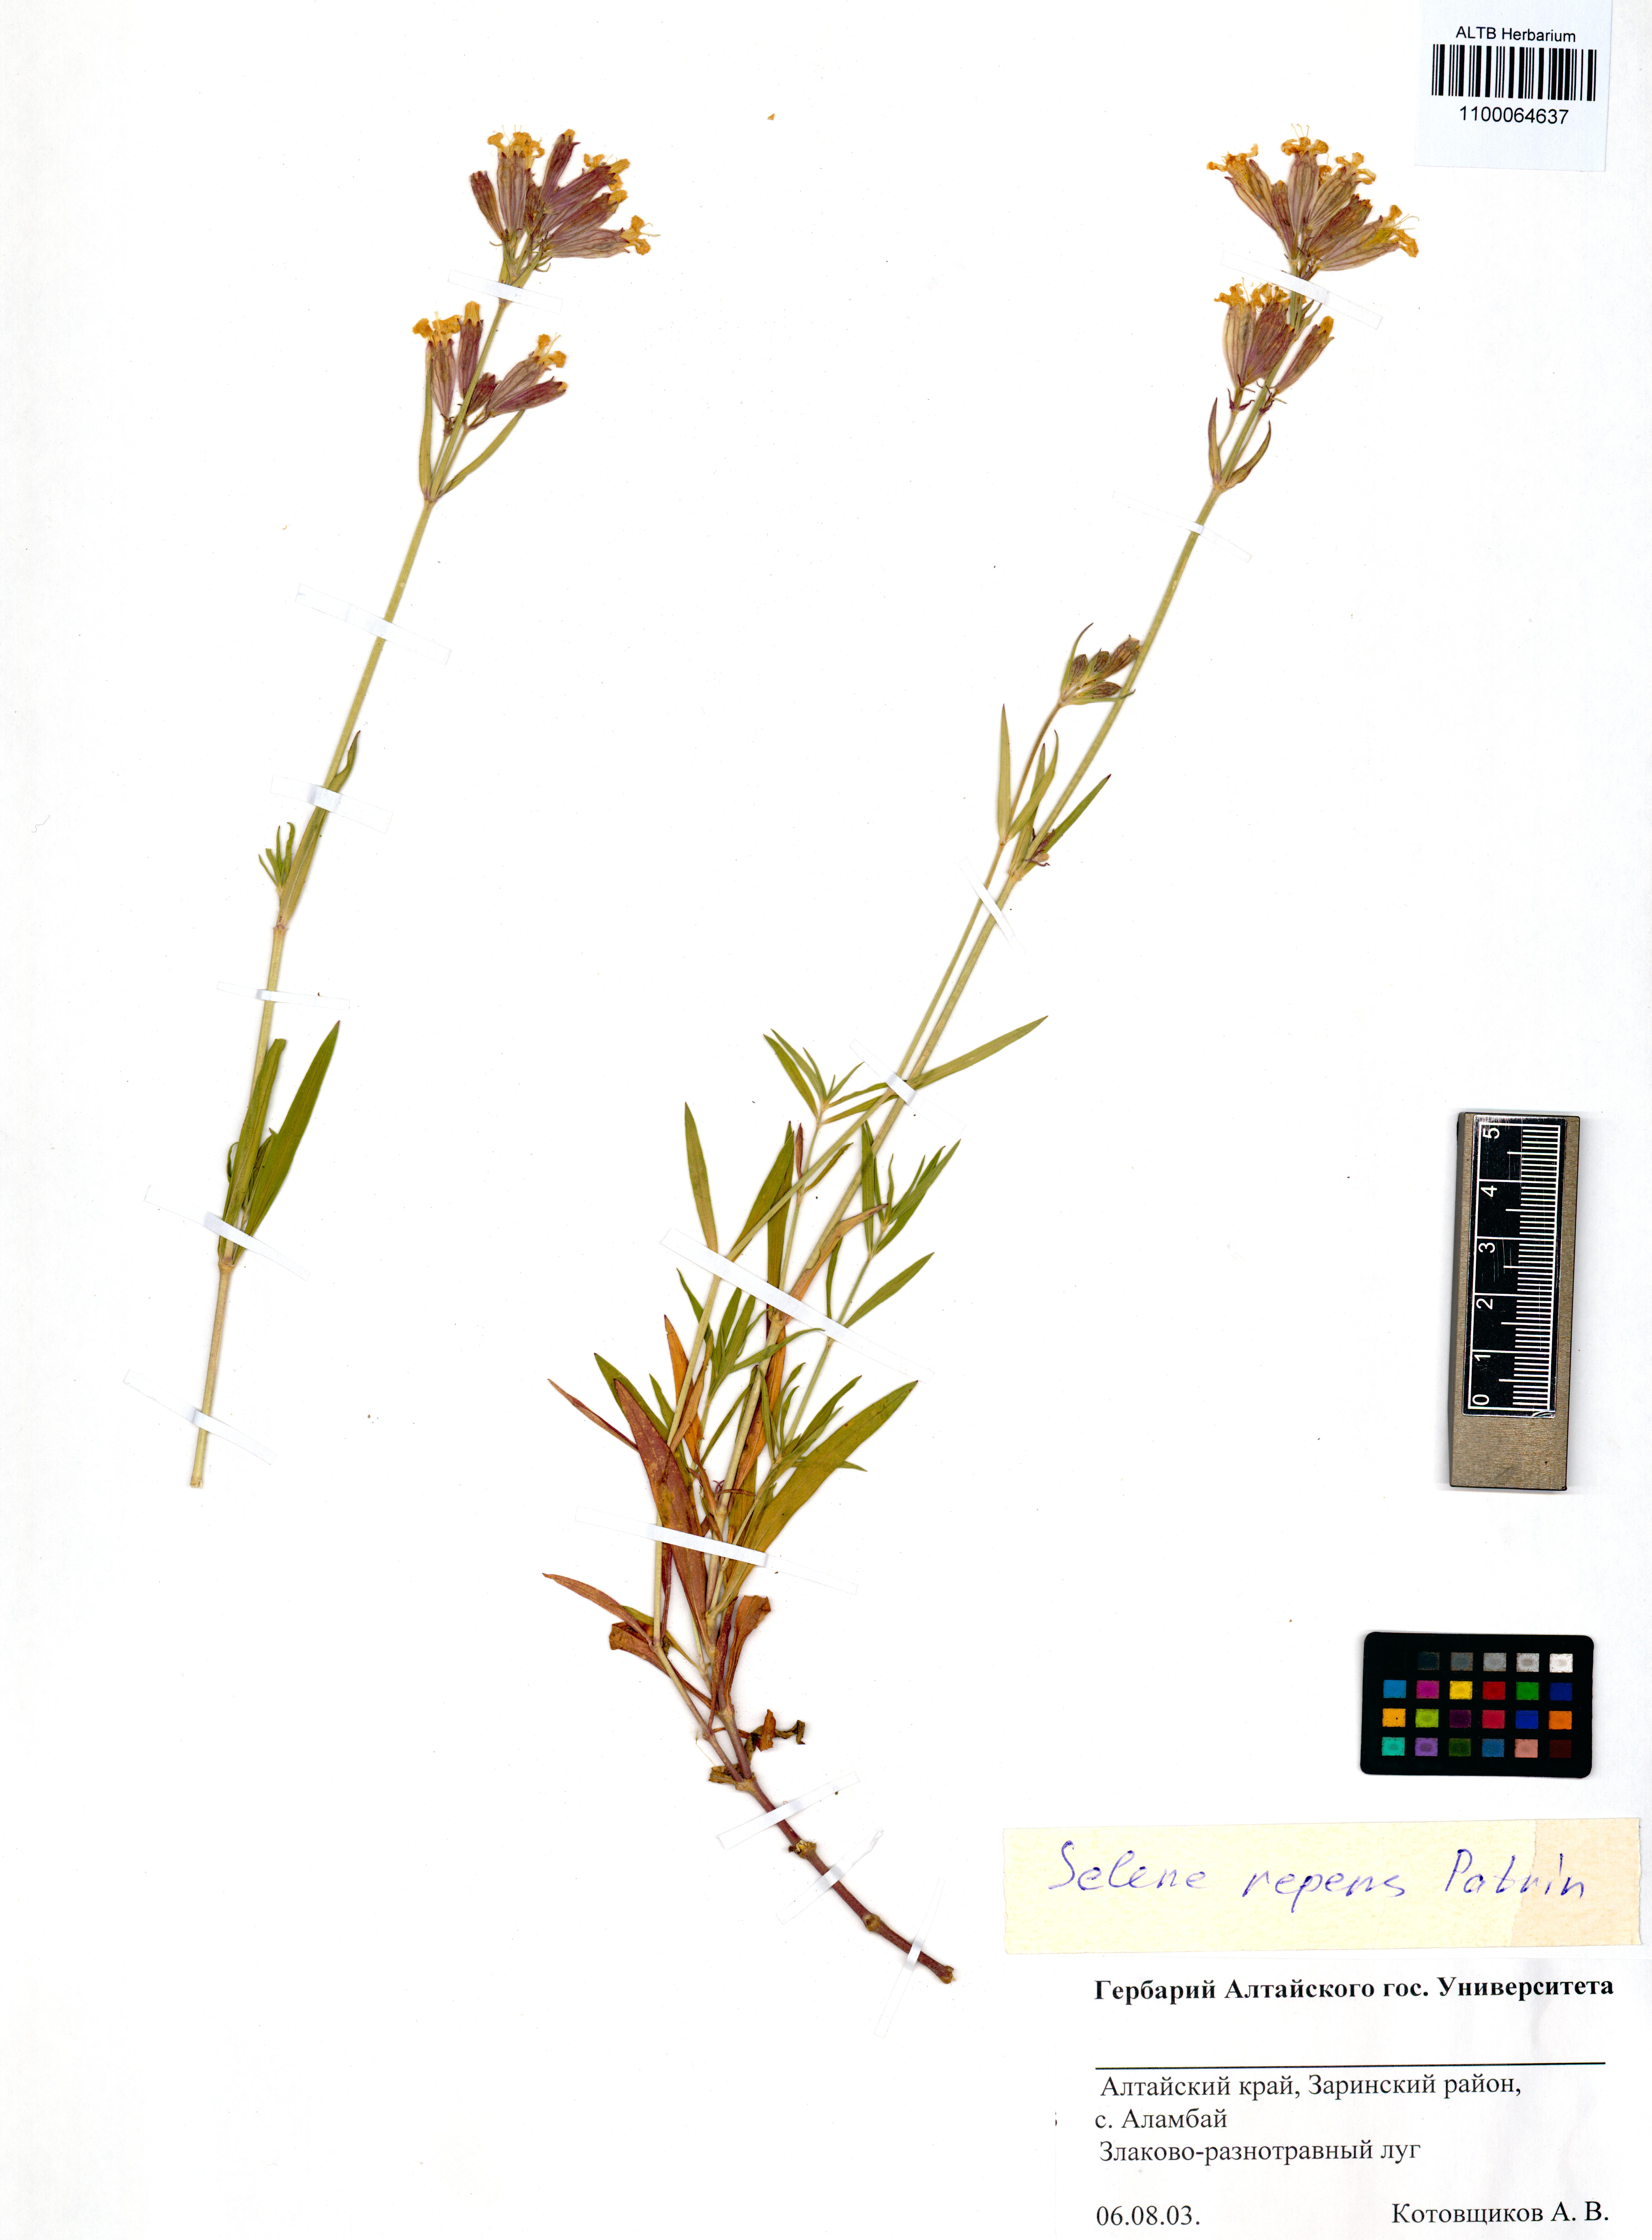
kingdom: Plantae
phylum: Tracheophyta
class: Magnoliopsida
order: Caryophyllales
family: Caryophyllaceae
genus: Silene
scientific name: Silene repens
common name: Pink campion
